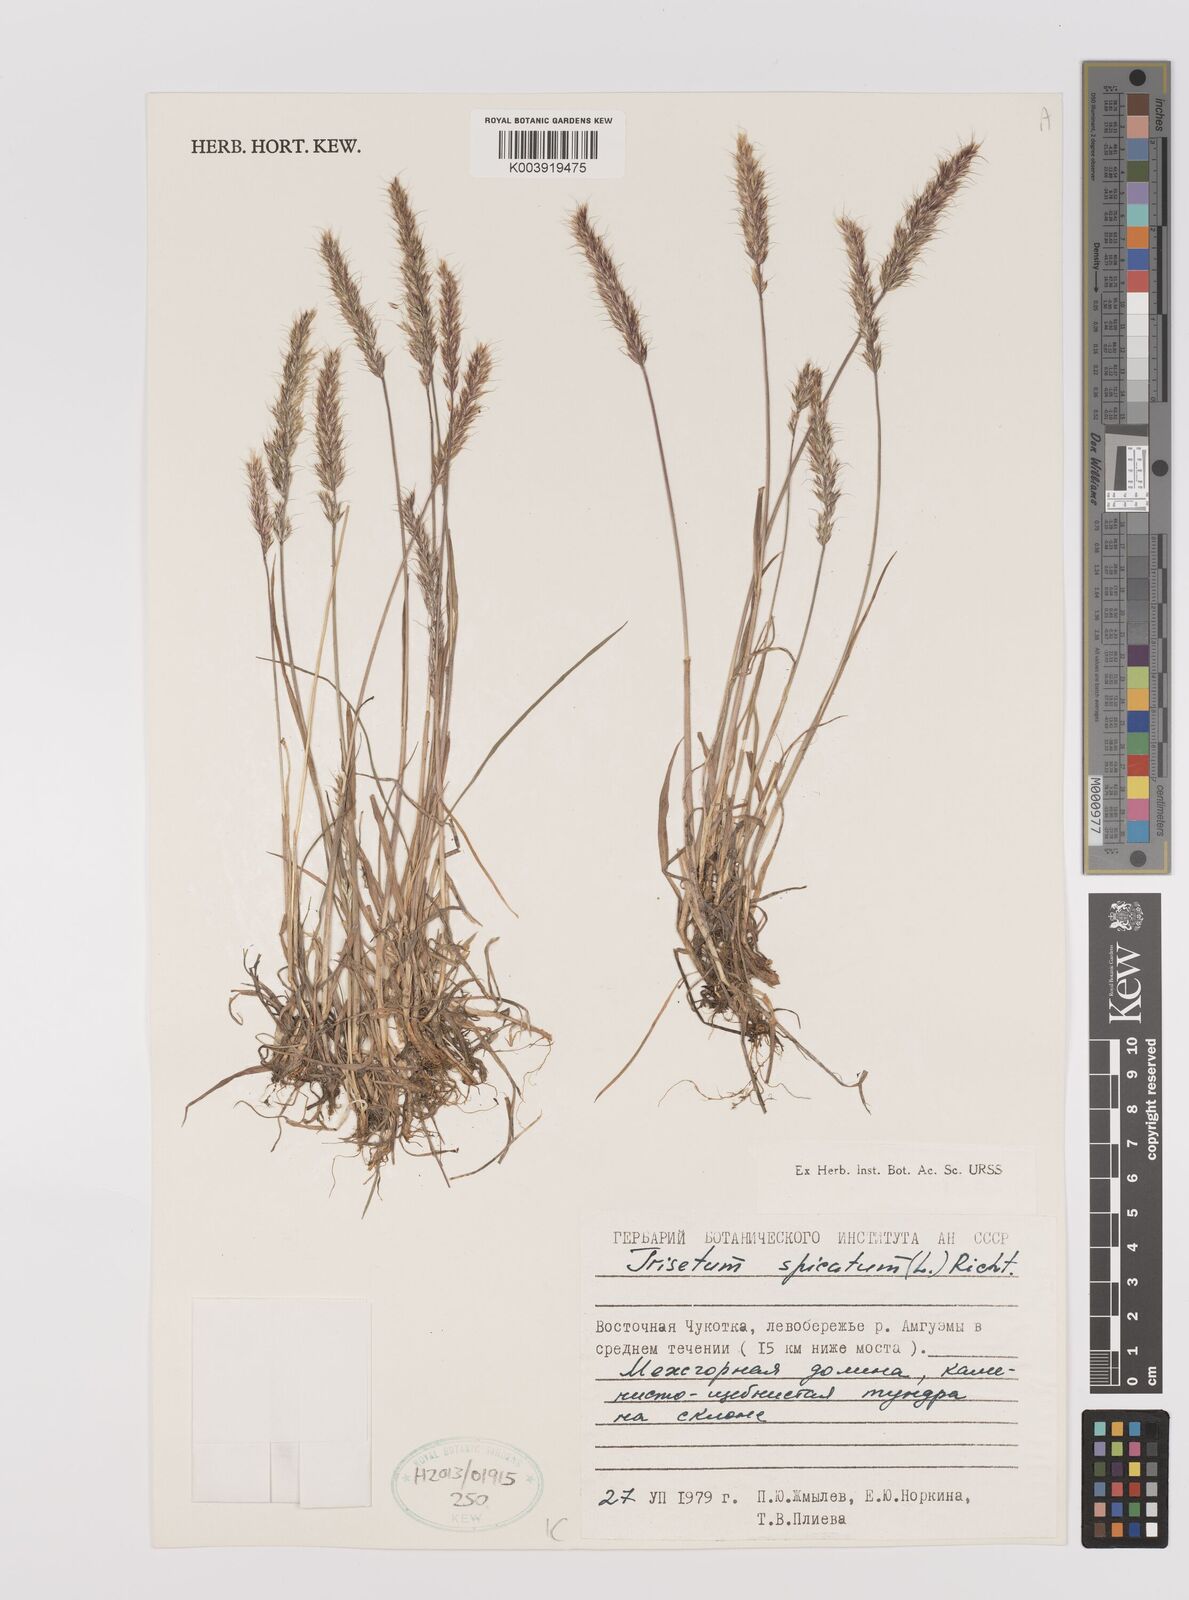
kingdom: Plantae
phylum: Tracheophyta
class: Liliopsida
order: Poales
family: Poaceae
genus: Koeleria
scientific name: Koeleria spicata
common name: Mountain trisetum
